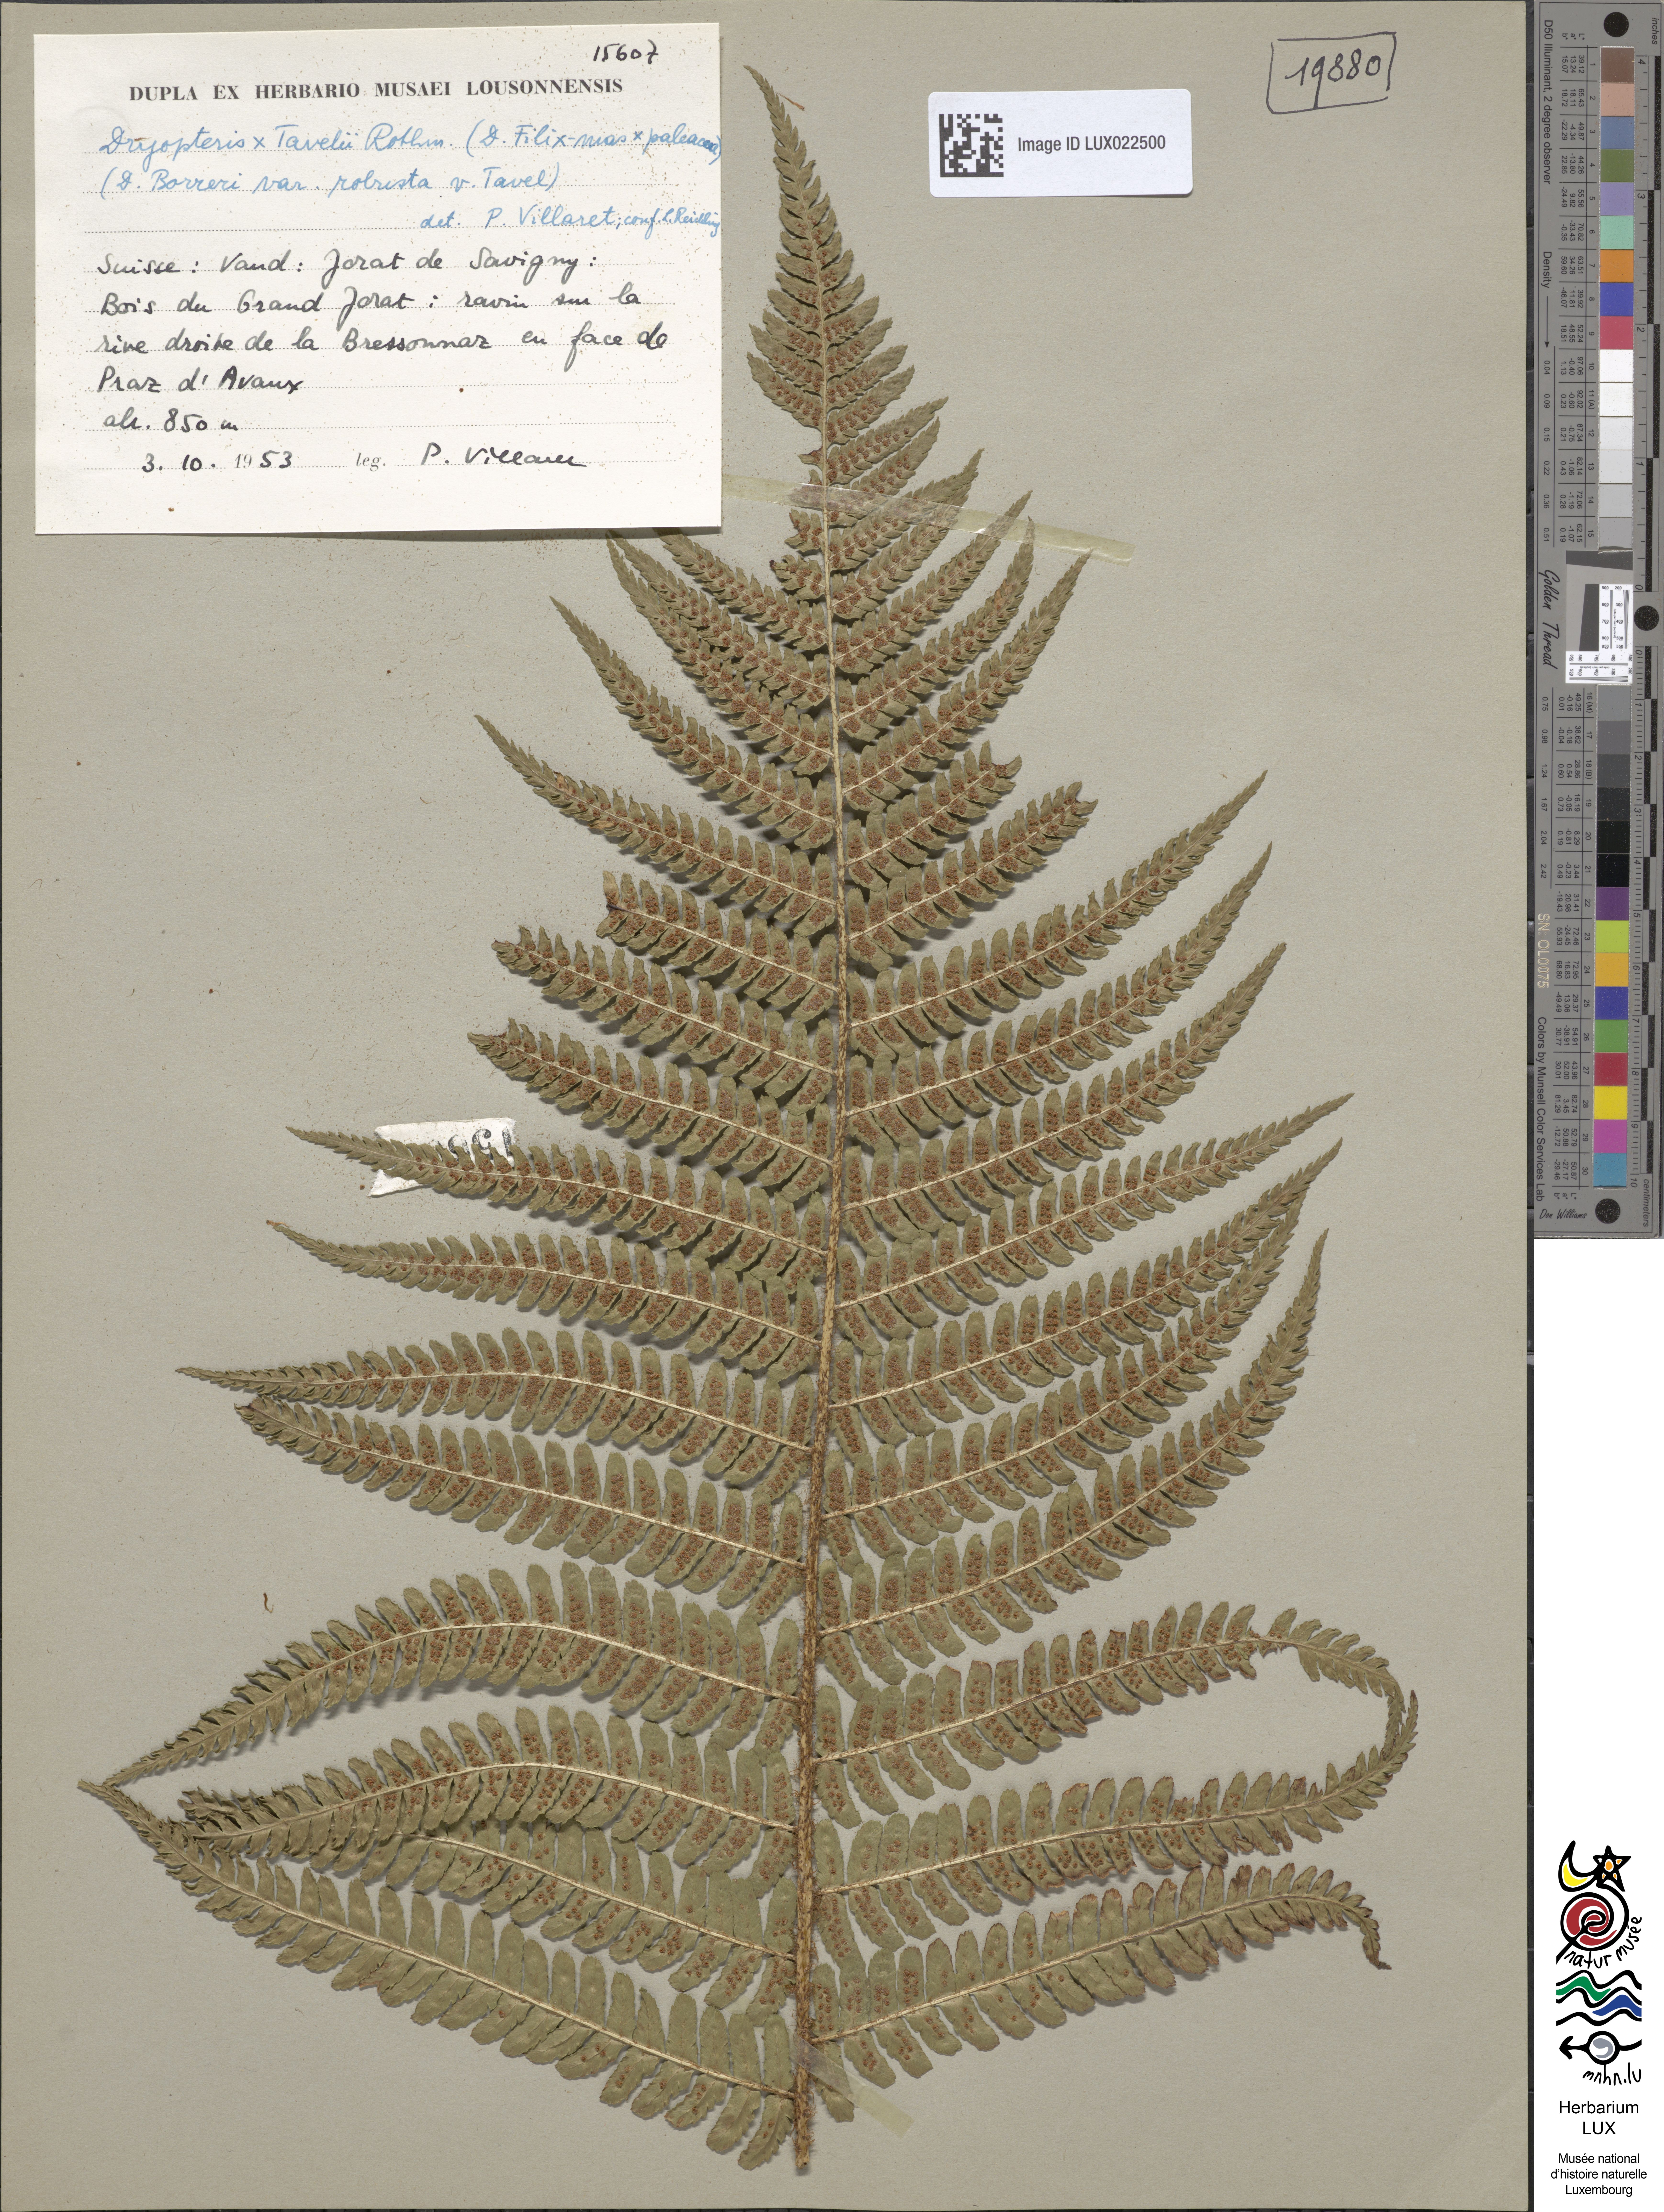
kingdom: Plantae
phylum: Tracheophyta
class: Polypodiopsida
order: Polypodiales
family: Dryopteridaceae
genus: Dryopteris
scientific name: Dryopteris borreri
